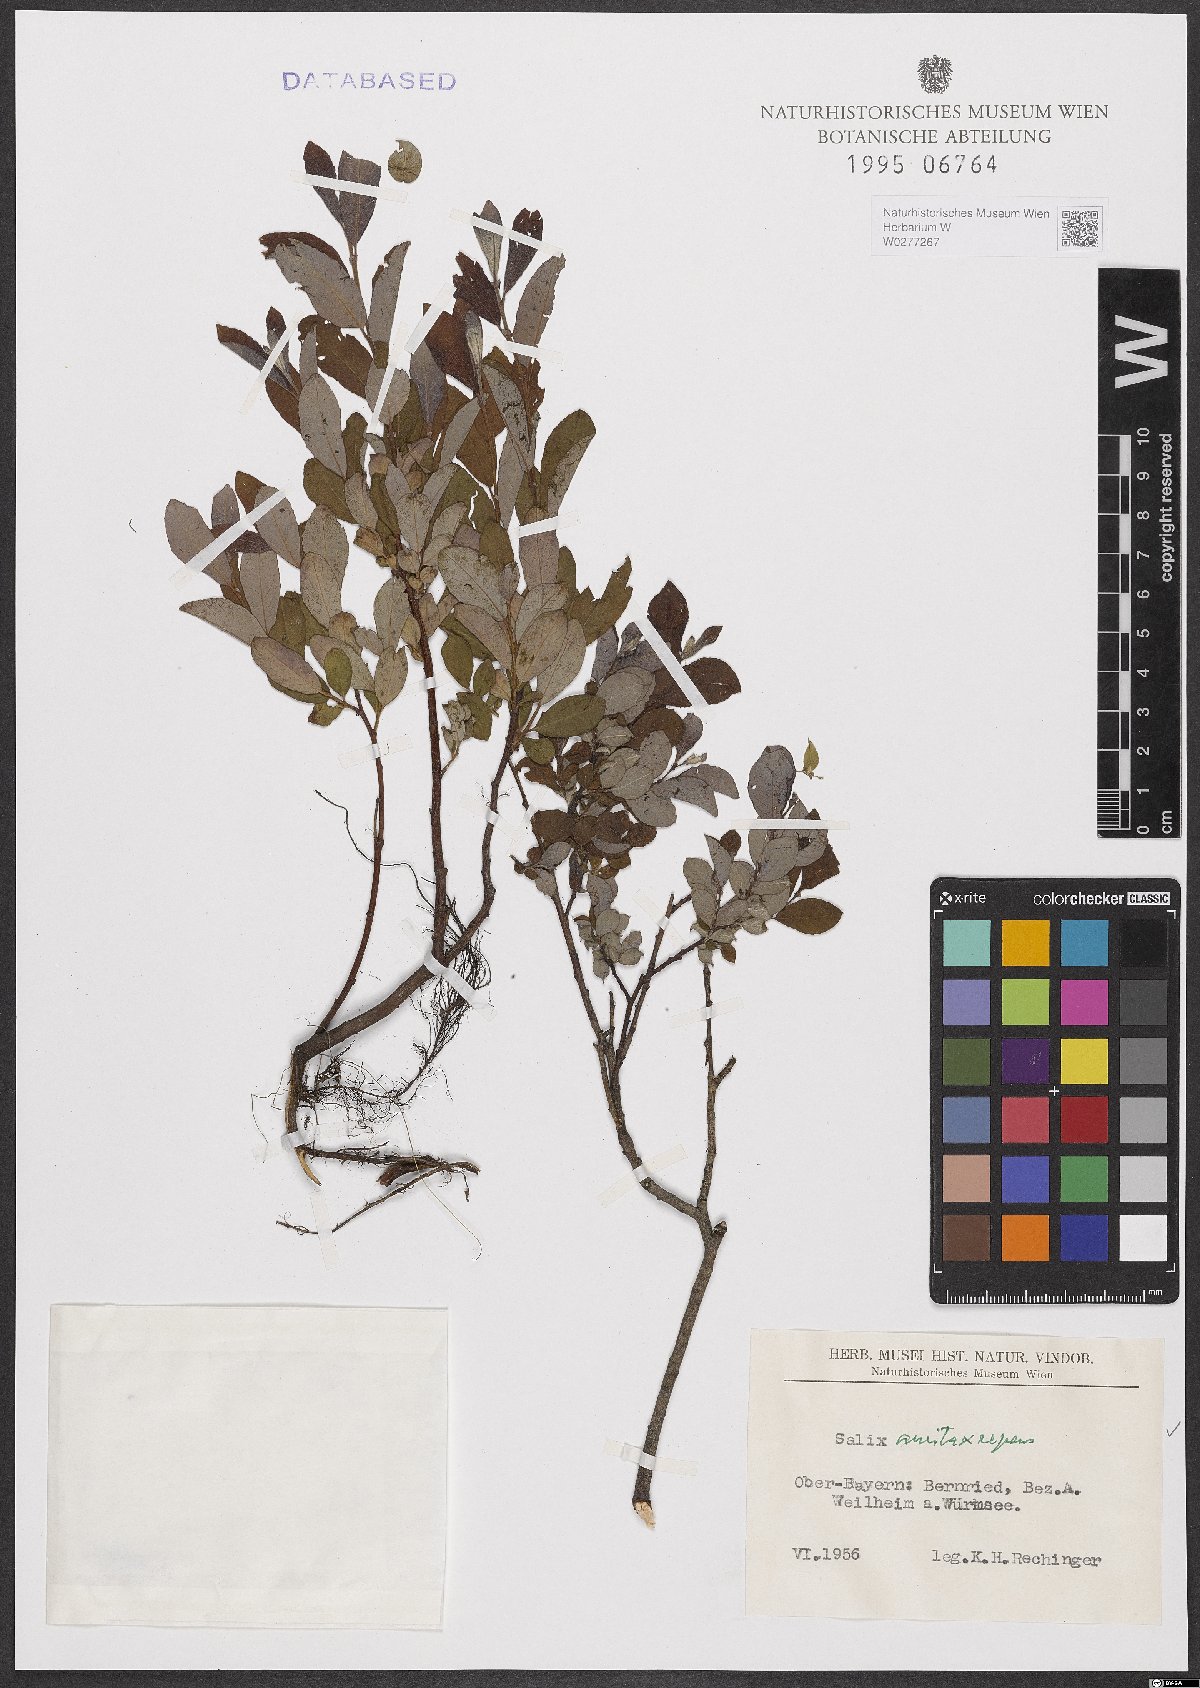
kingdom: Plantae
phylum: Tracheophyta
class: Magnoliopsida
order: Malpighiales
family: Salicaceae
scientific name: Salicaceae
